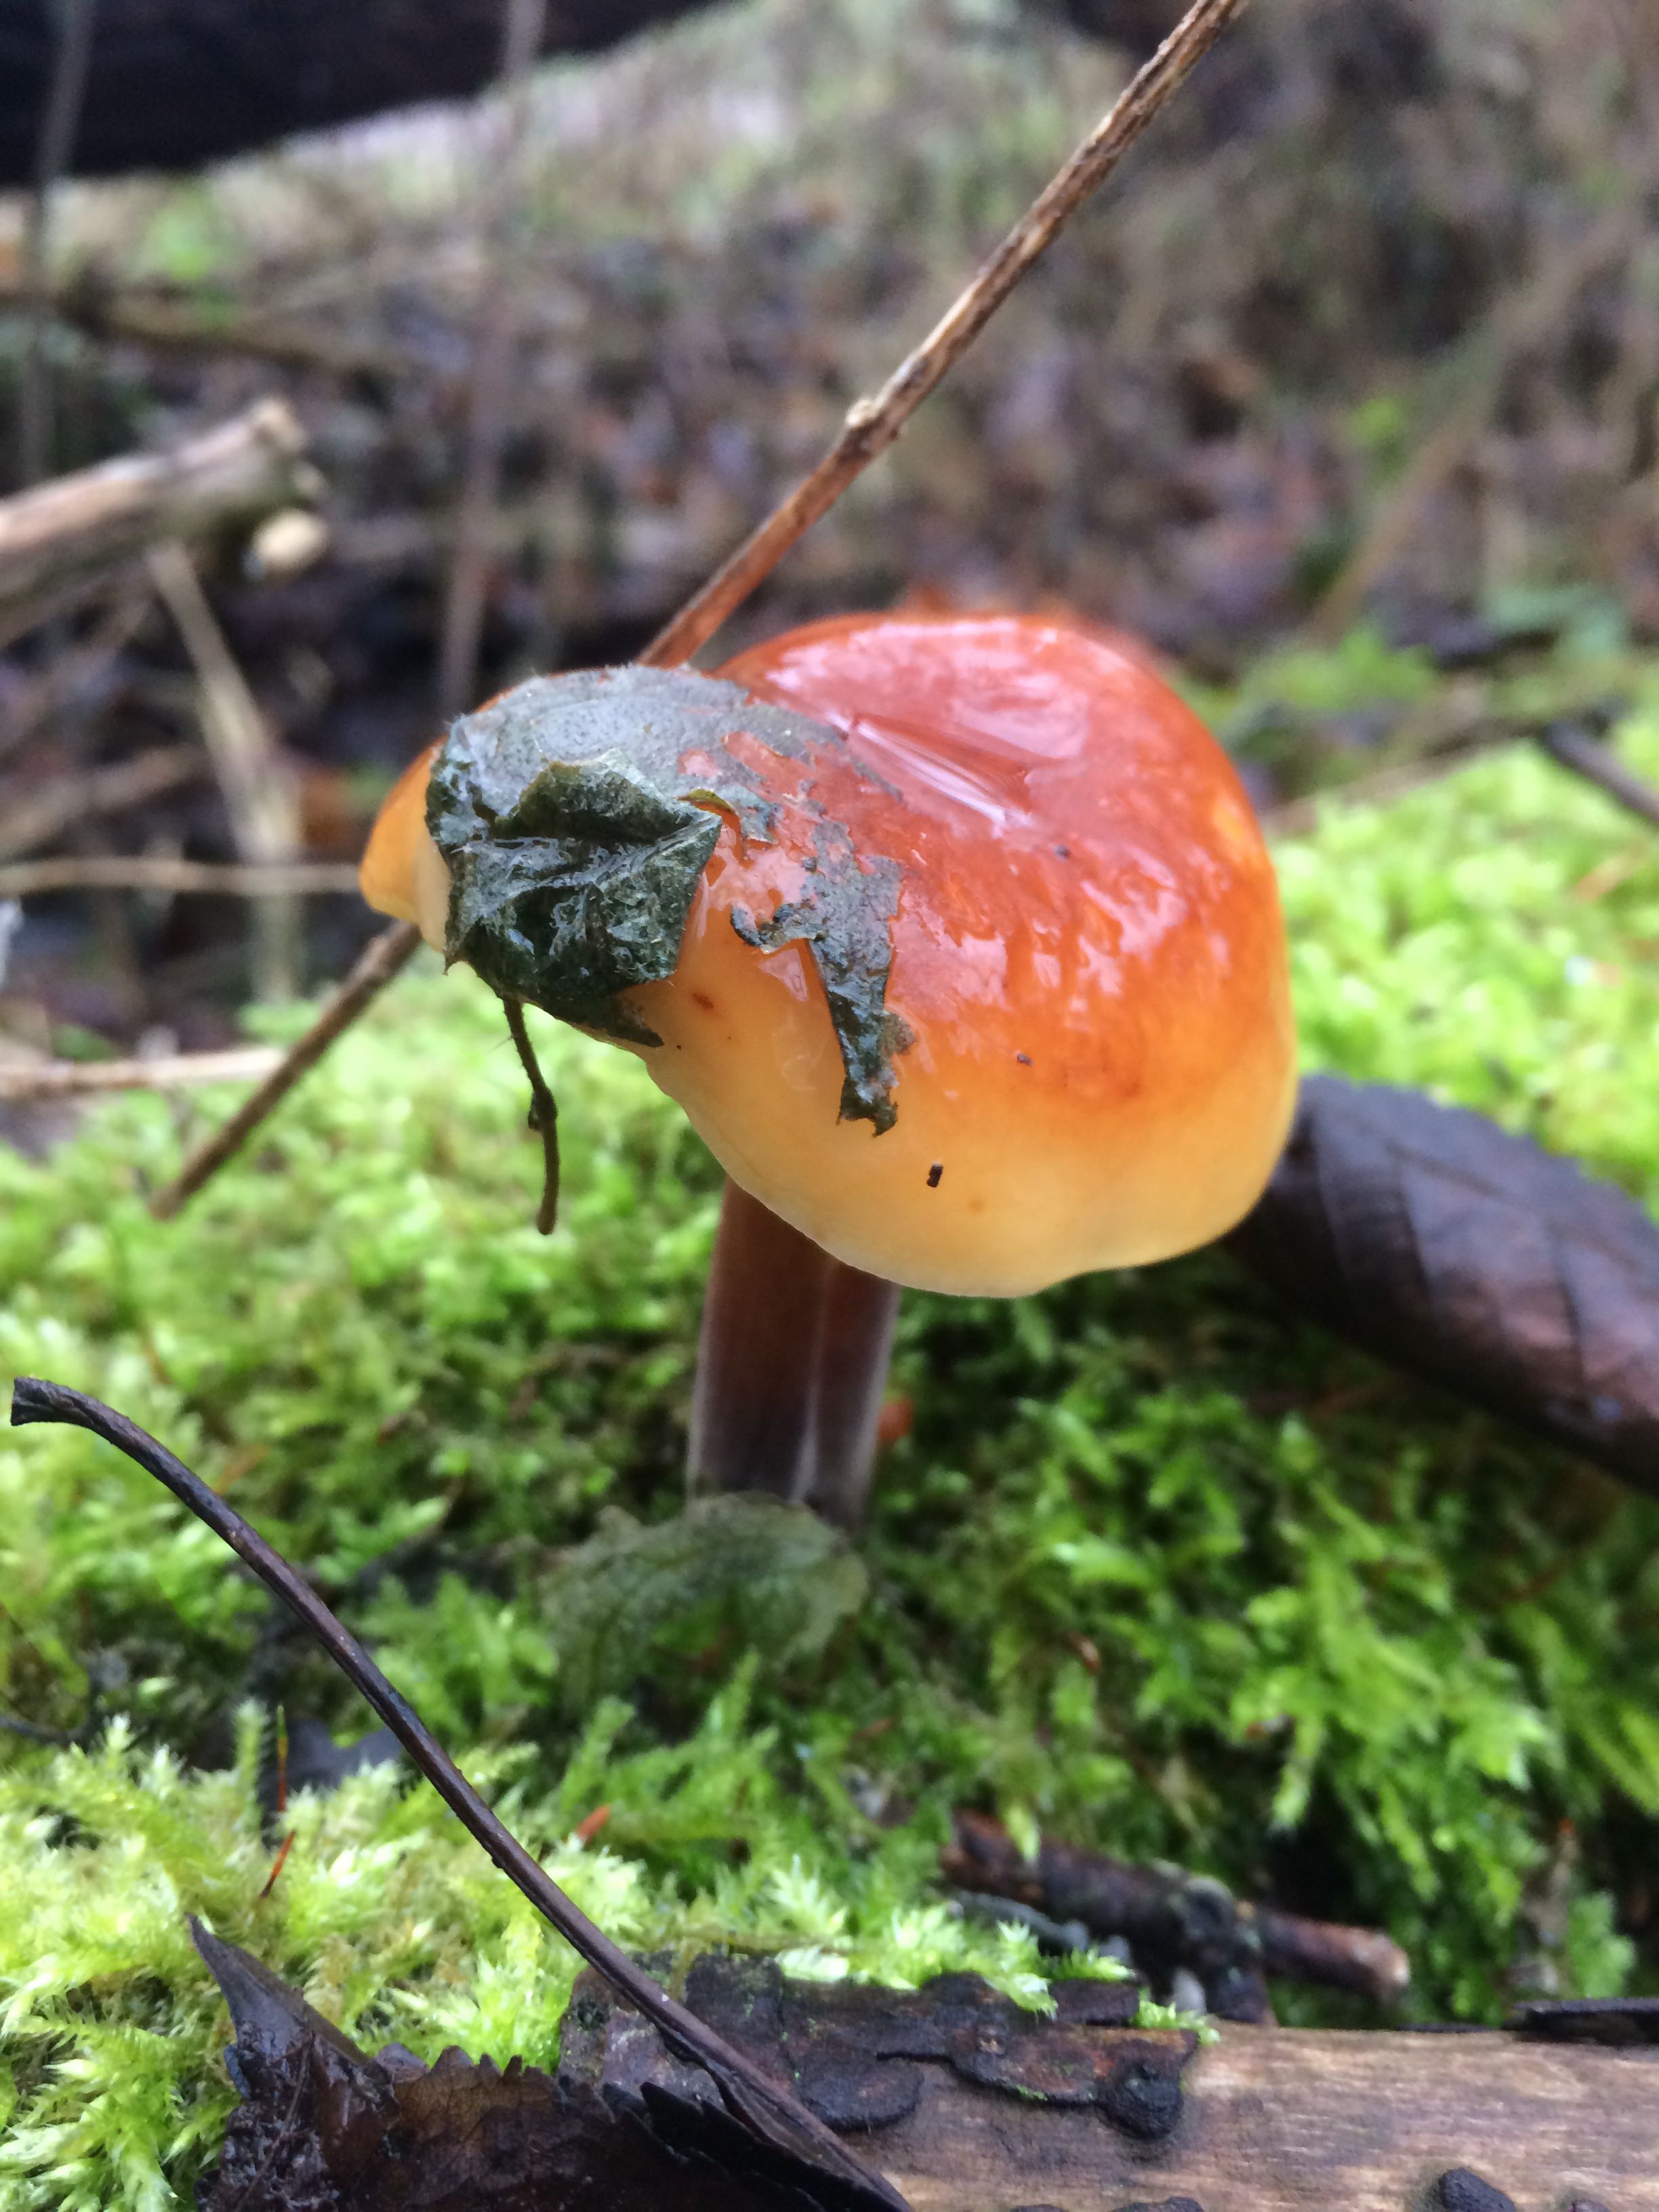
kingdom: Fungi
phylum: Basidiomycota
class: Agaricomycetes
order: Agaricales
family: Physalacriaceae
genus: Flammulina
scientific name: Flammulina
